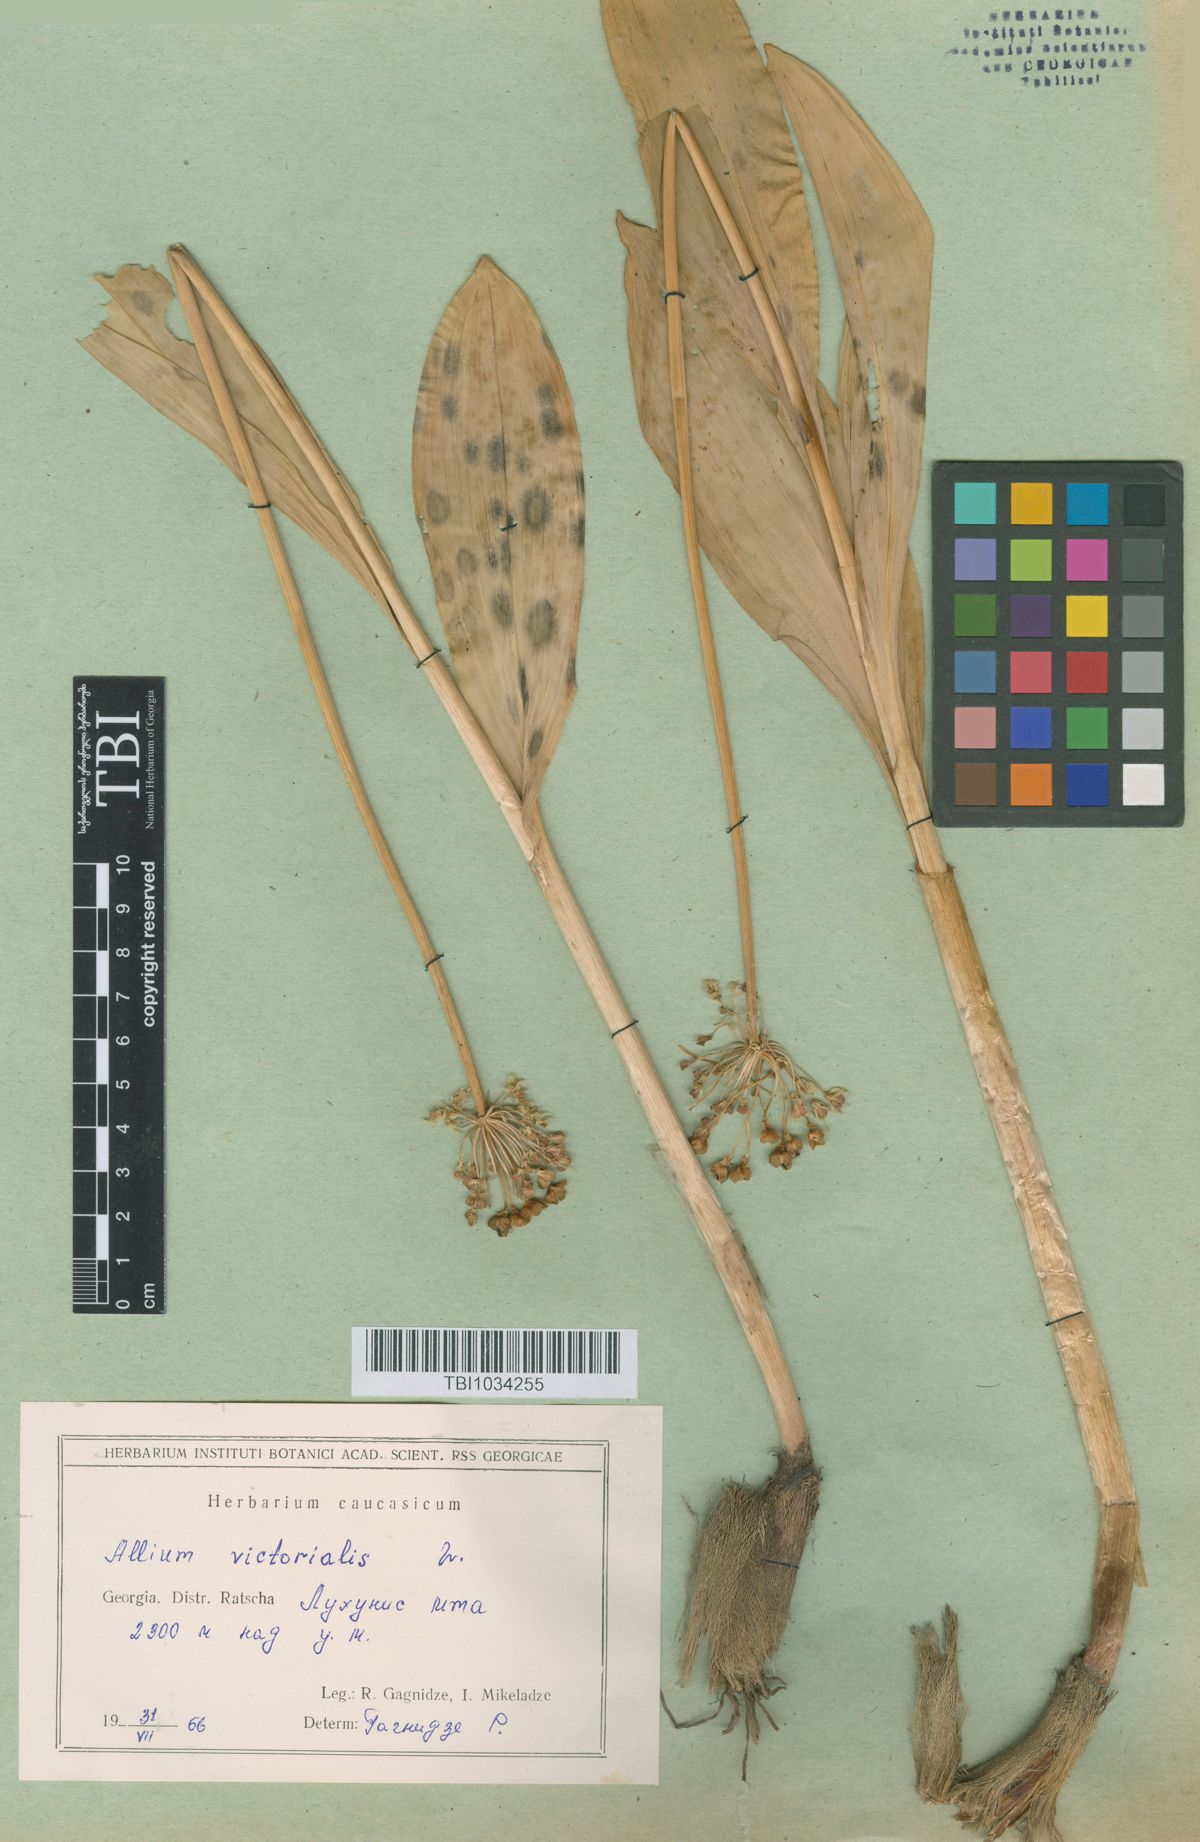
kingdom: Plantae
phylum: Tracheophyta
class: Liliopsida
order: Asparagales
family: Amaryllidaceae
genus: Allium
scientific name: Allium victorialis
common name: Alpine leek
